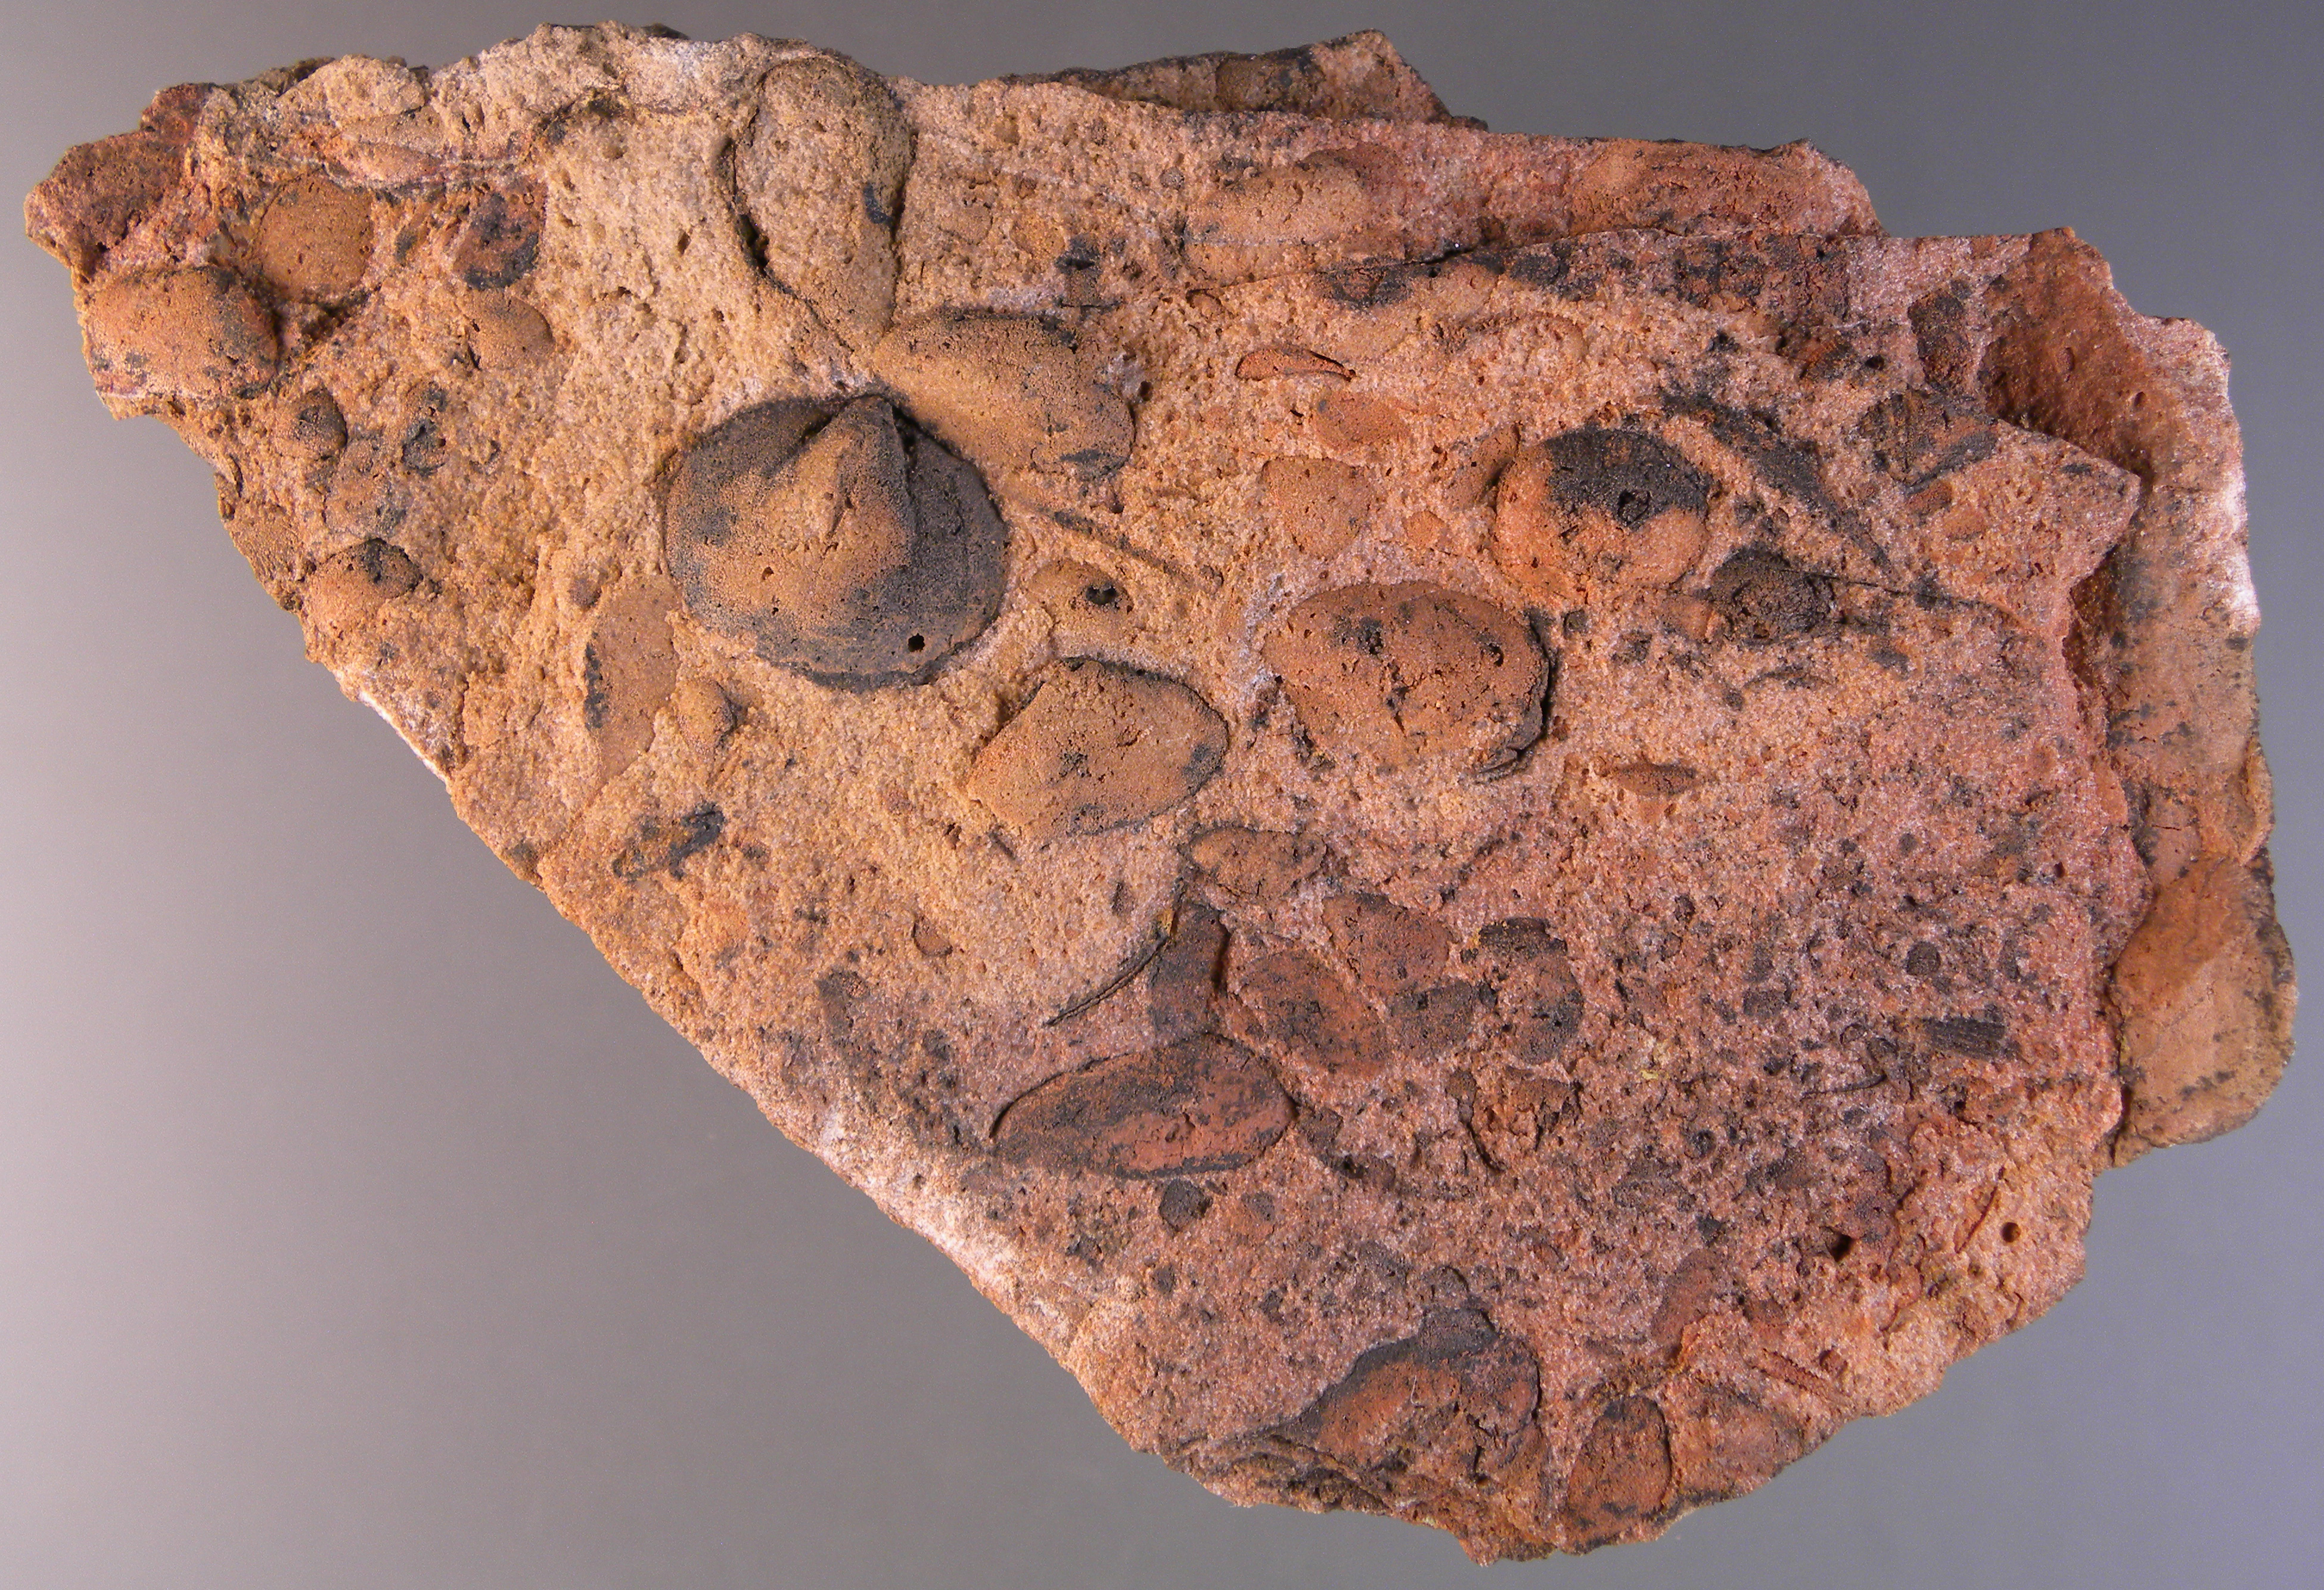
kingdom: Animalia
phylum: Brachiopoda
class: Rhynchonellata
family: Rhipidomellidae
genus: Platyorthis
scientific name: Platyorthis
